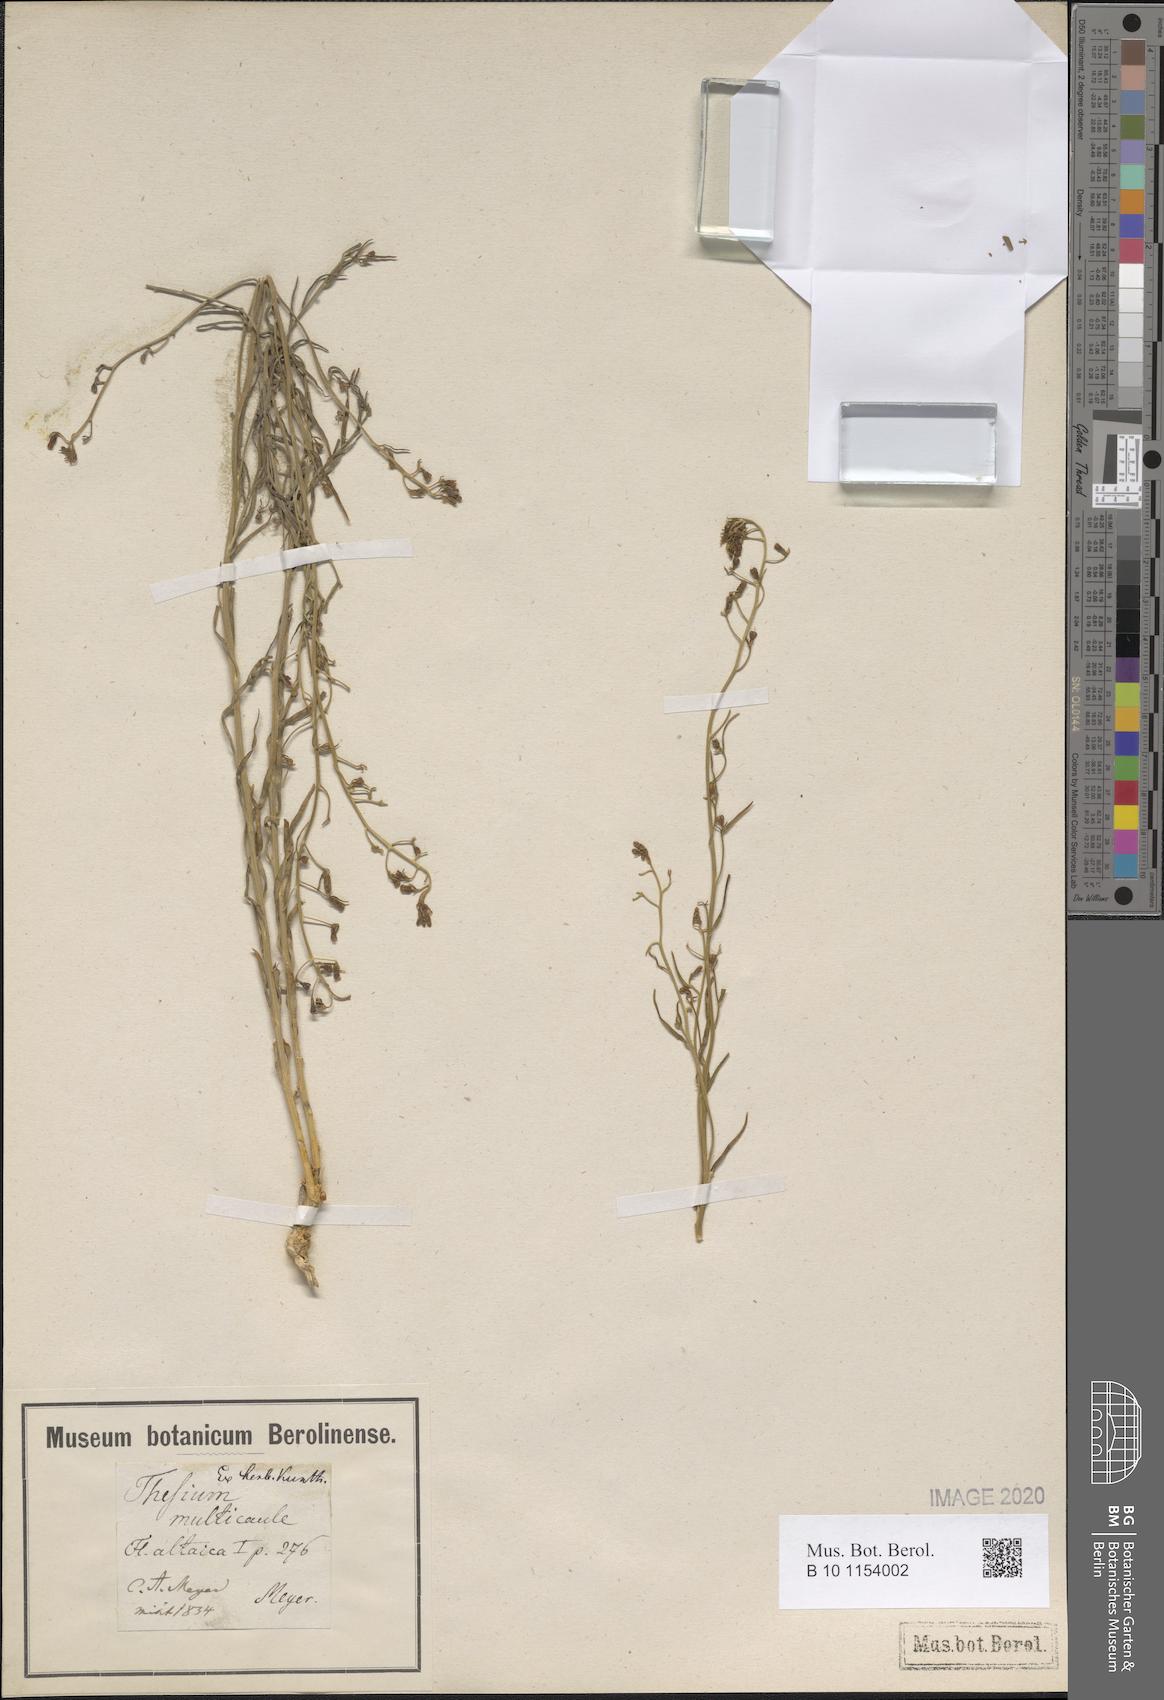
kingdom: Plantae
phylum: Tracheophyta
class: Magnoliopsida
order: Santalales
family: Thesiaceae
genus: Thesium
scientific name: Thesium multicaule
